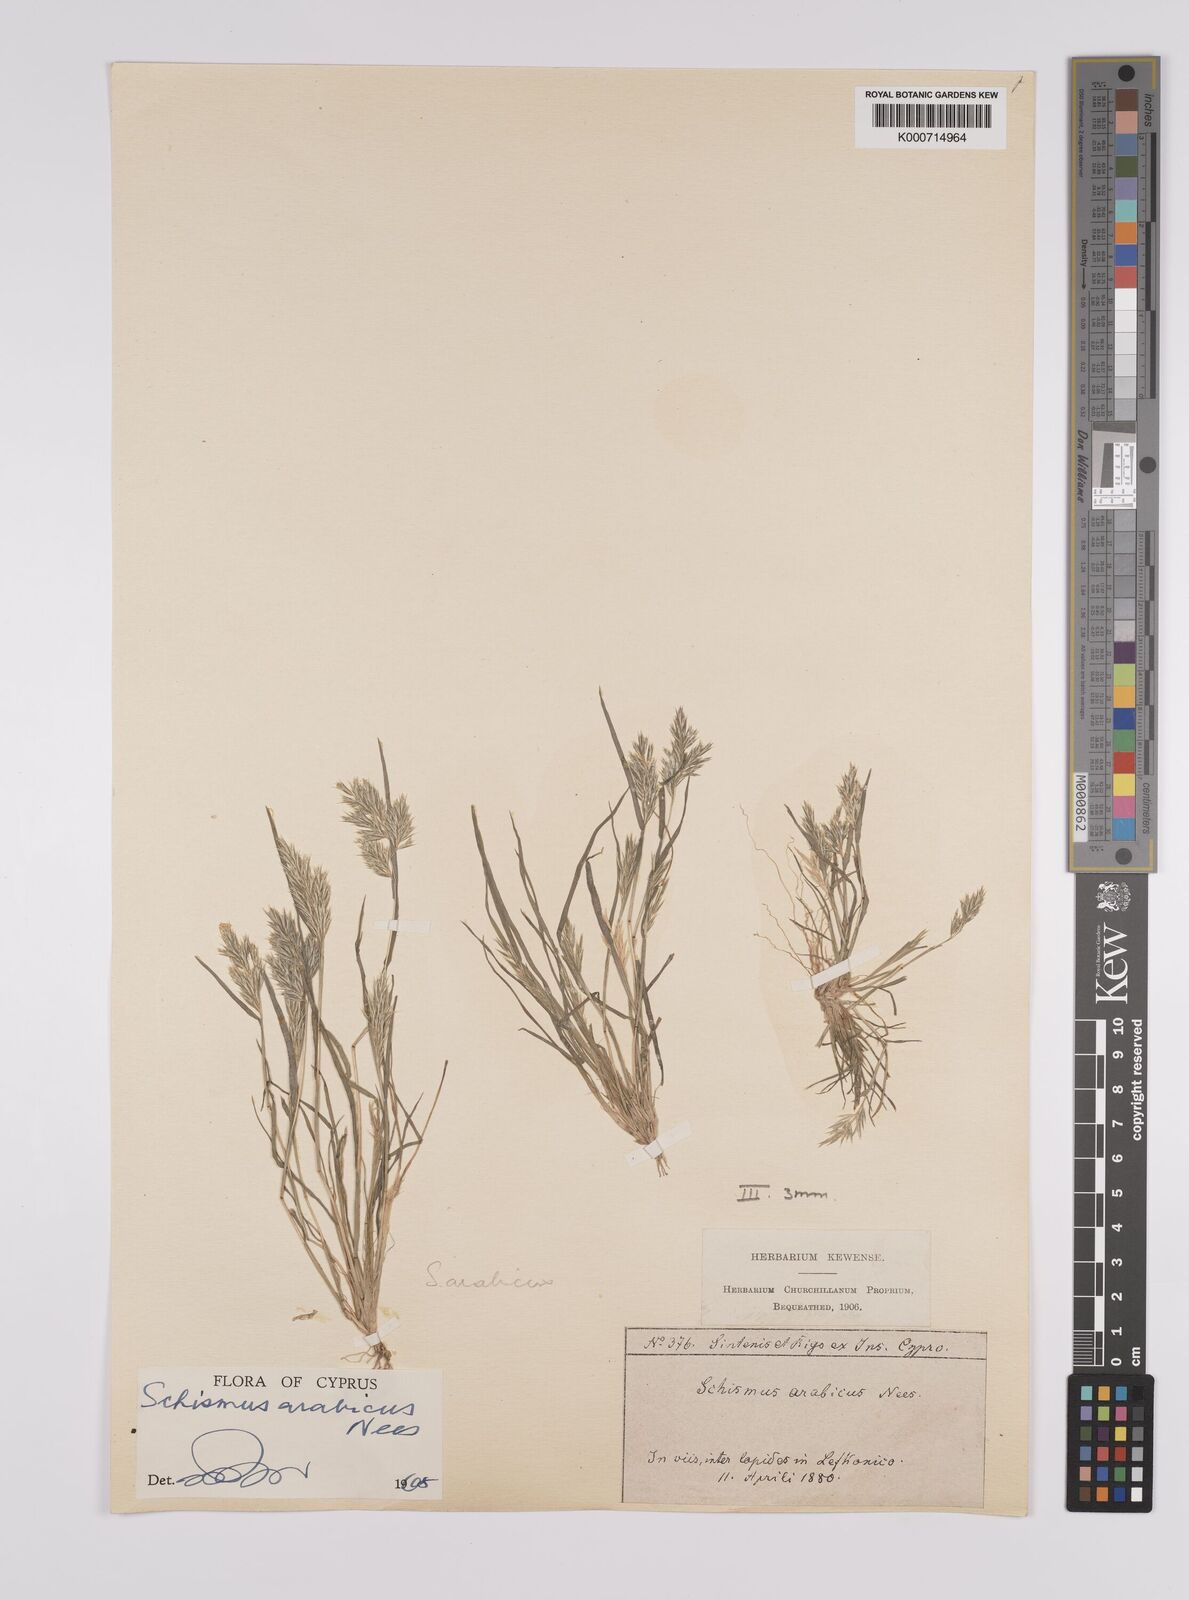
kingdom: Plantae
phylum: Tracheophyta
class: Liliopsida
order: Poales
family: Poaceae
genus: Schismus
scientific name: Schismus arabicus
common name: Arabian schismus
